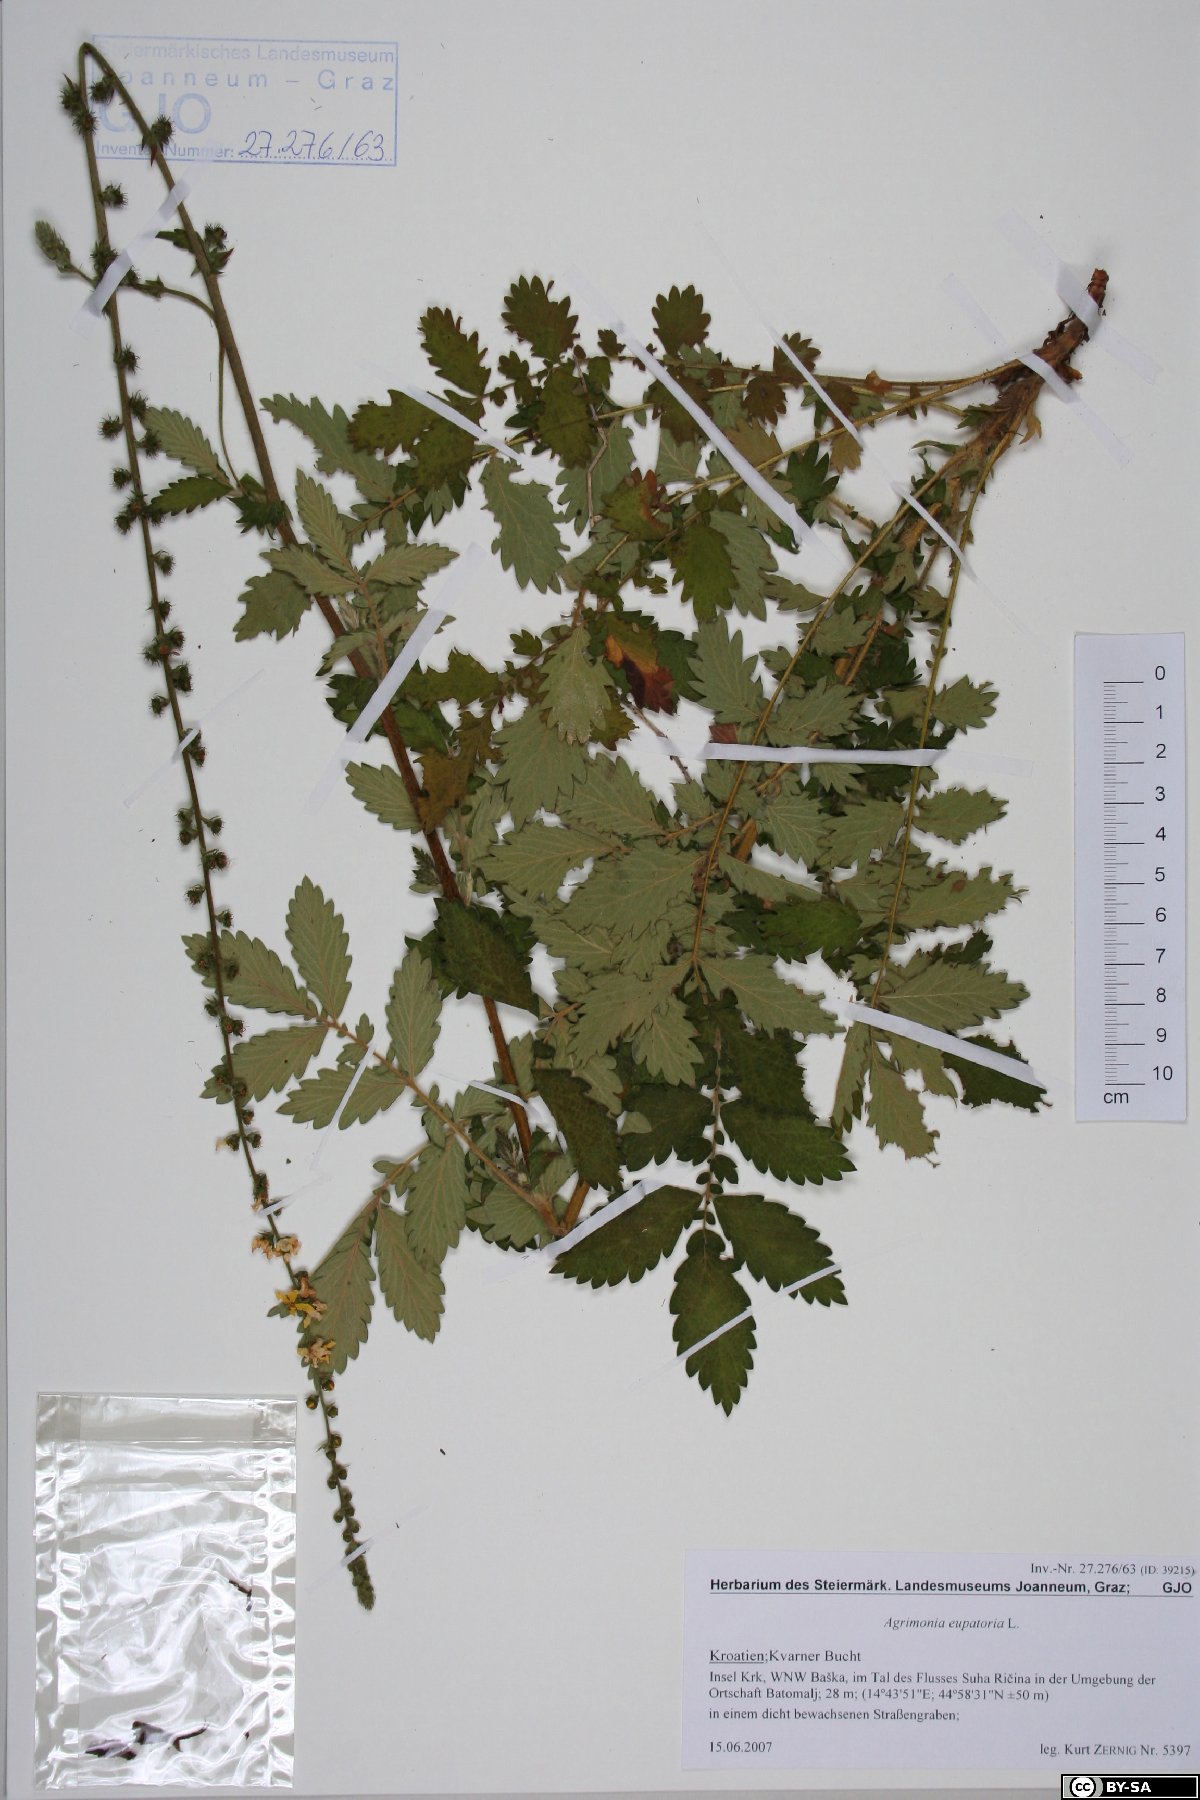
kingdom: Plantae
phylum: Tracheophyta
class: Magnoliopsida
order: Rosales
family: Rosaceae
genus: Agrimonia
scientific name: Agrimonia eupatoria
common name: Agrimony
